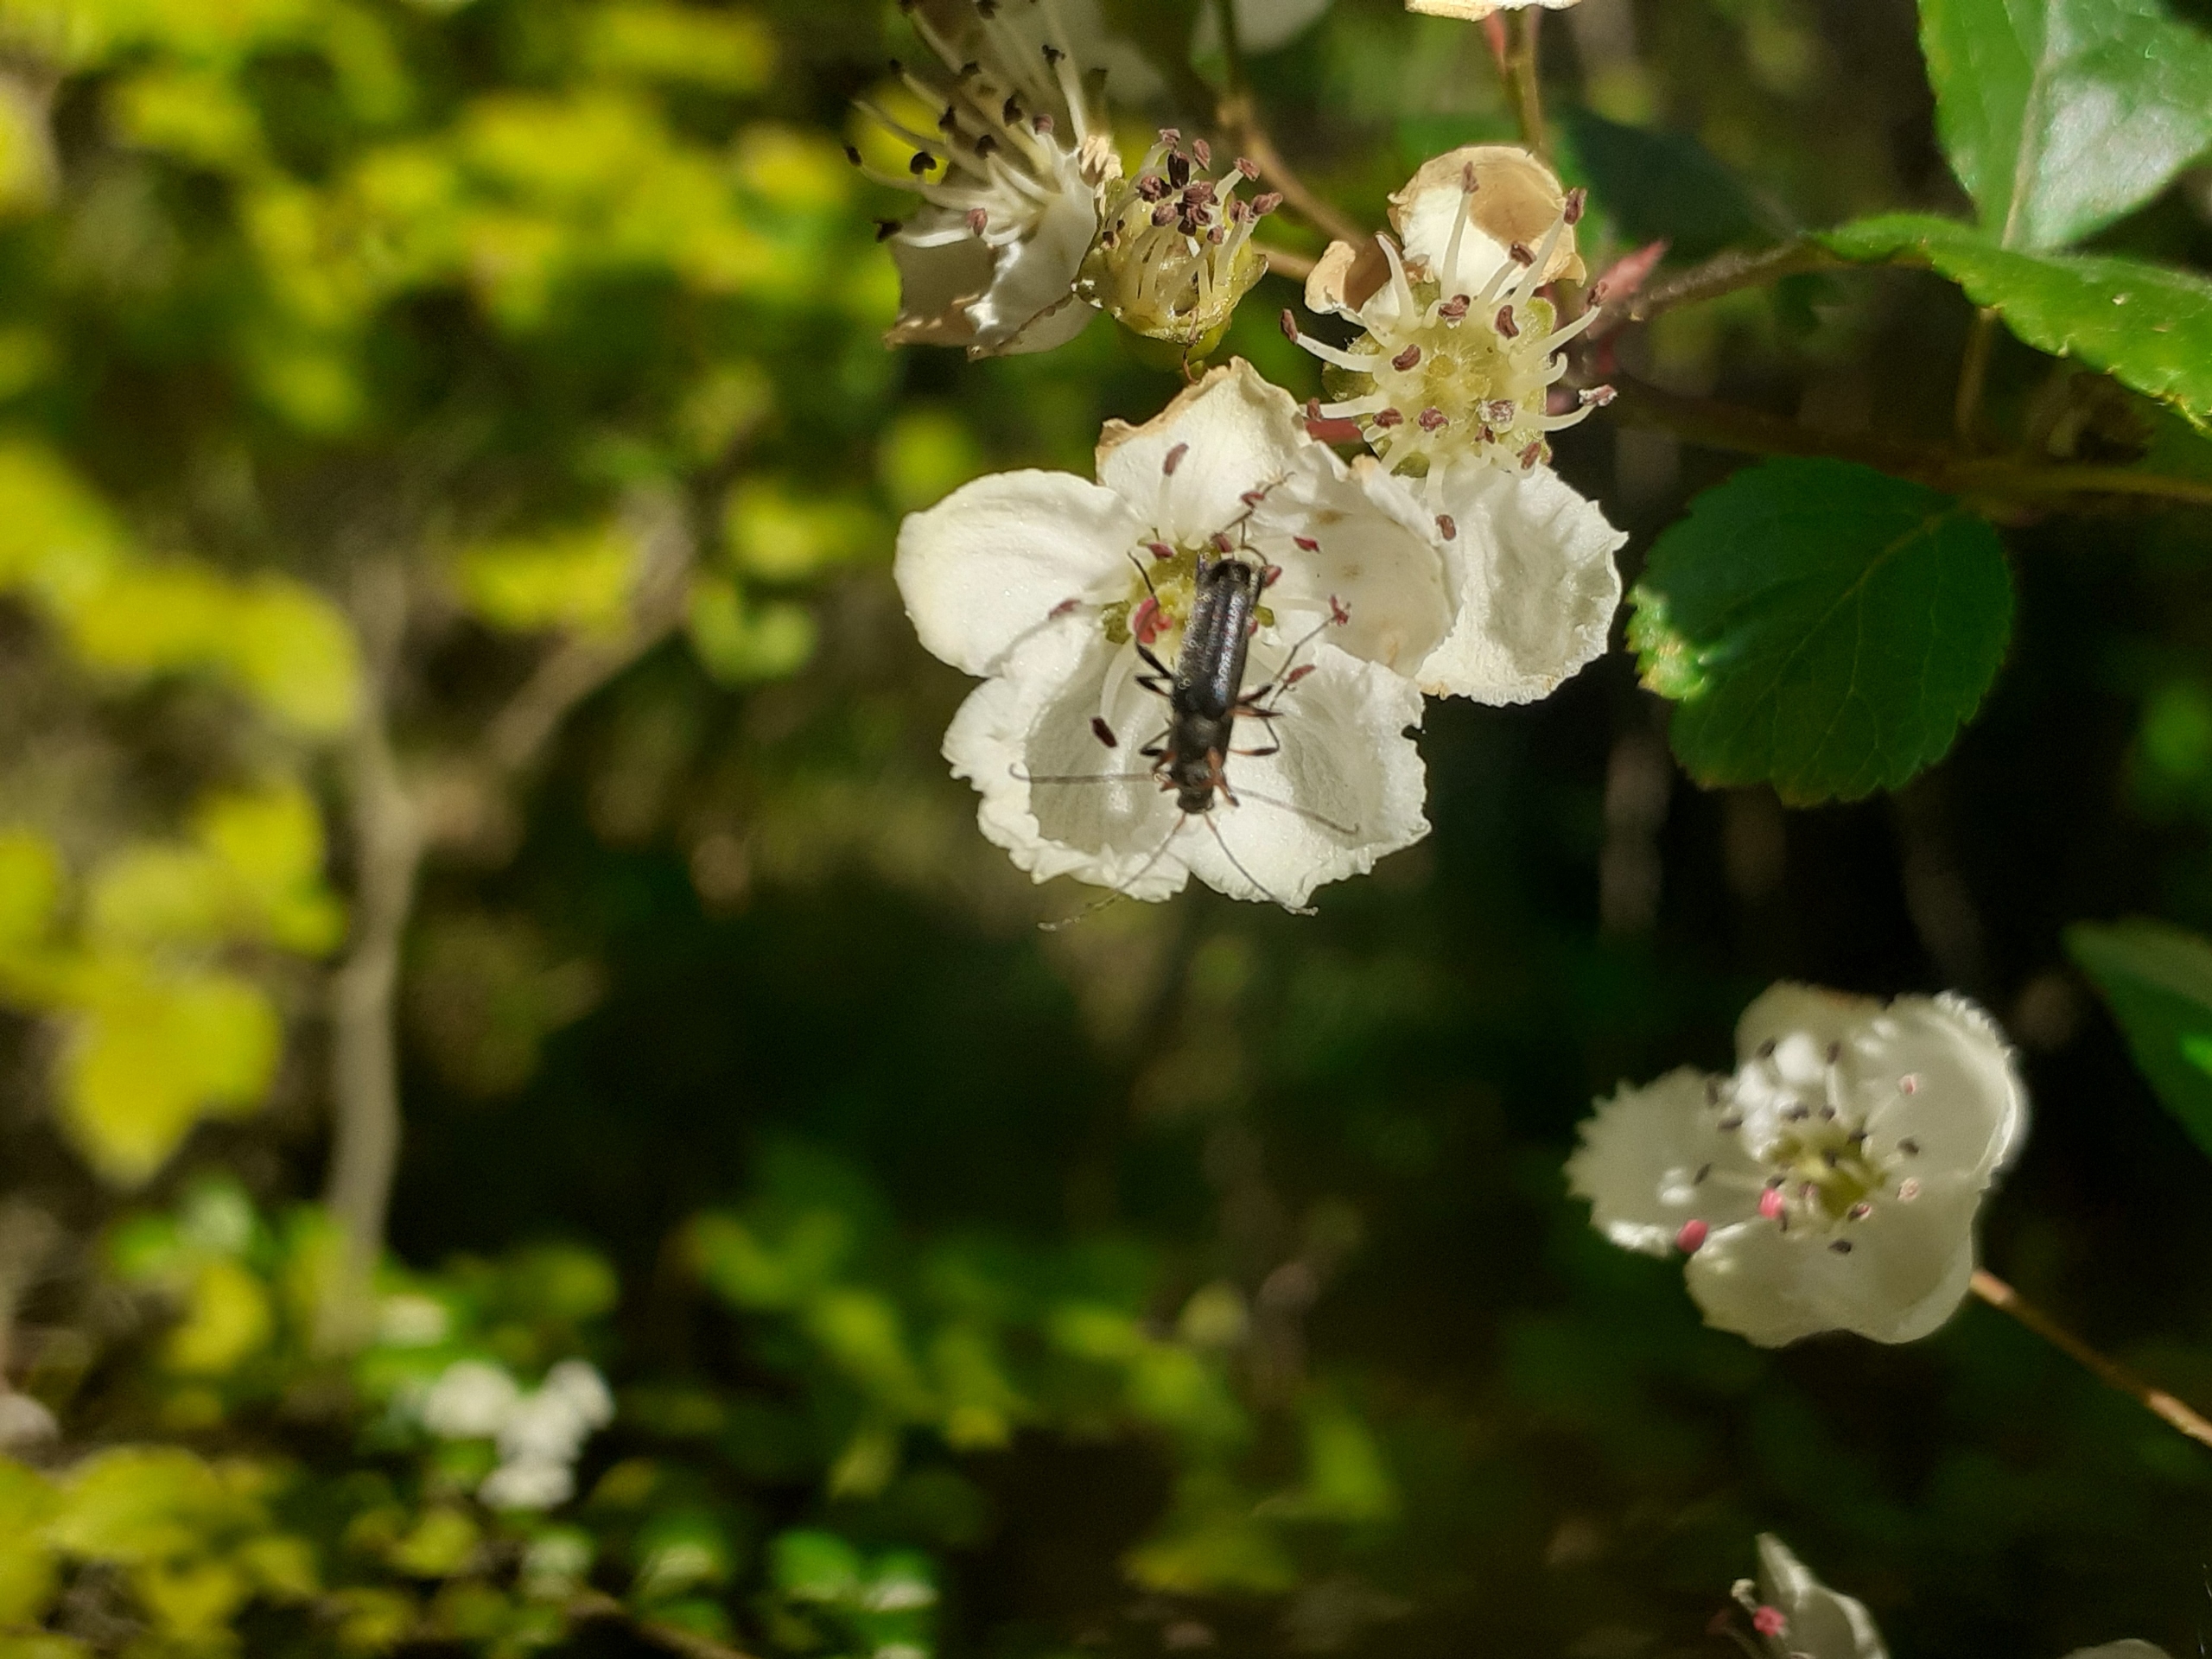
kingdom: Animalia
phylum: Arthropoda
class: Insecta
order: Coleoptera
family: Cerambycidae
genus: Grammoptera
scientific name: Grammoptera ruficornis
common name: Lille blomsterbuk
